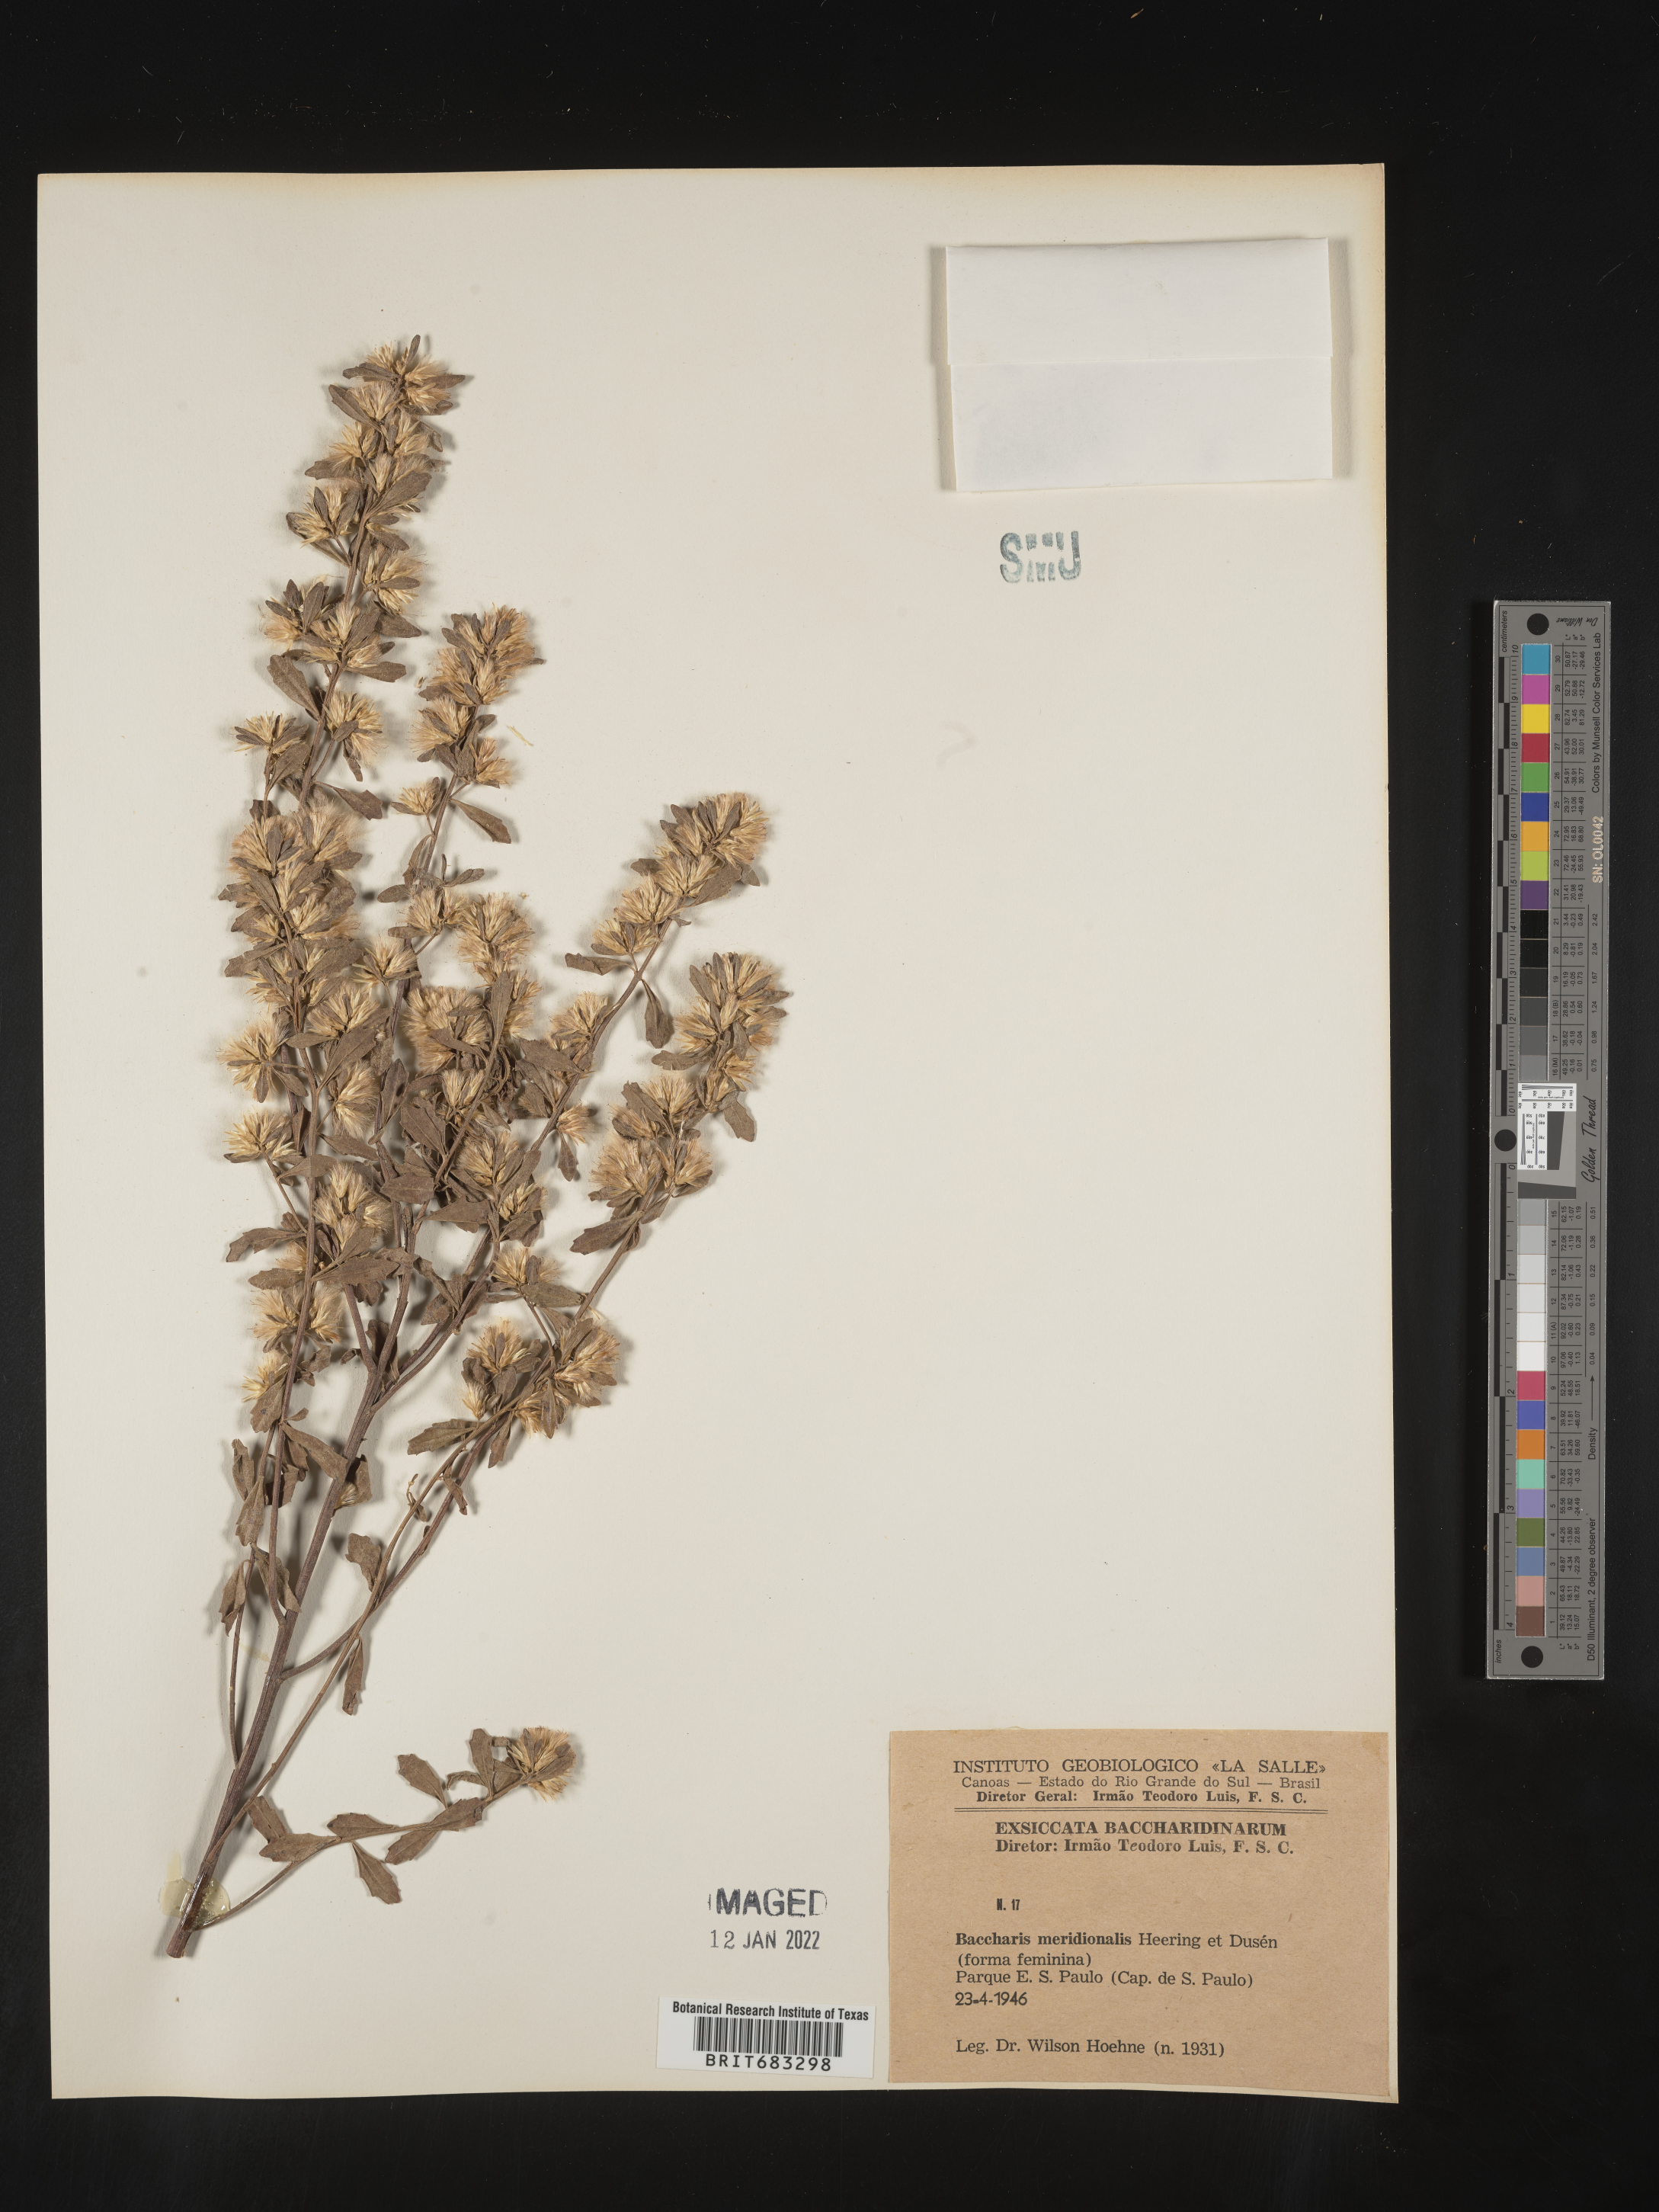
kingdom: Plantae
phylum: Tracheophyta
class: Magnoliopsida
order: Asterales
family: Asteraceae
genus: Baccharis
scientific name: Baccharis
